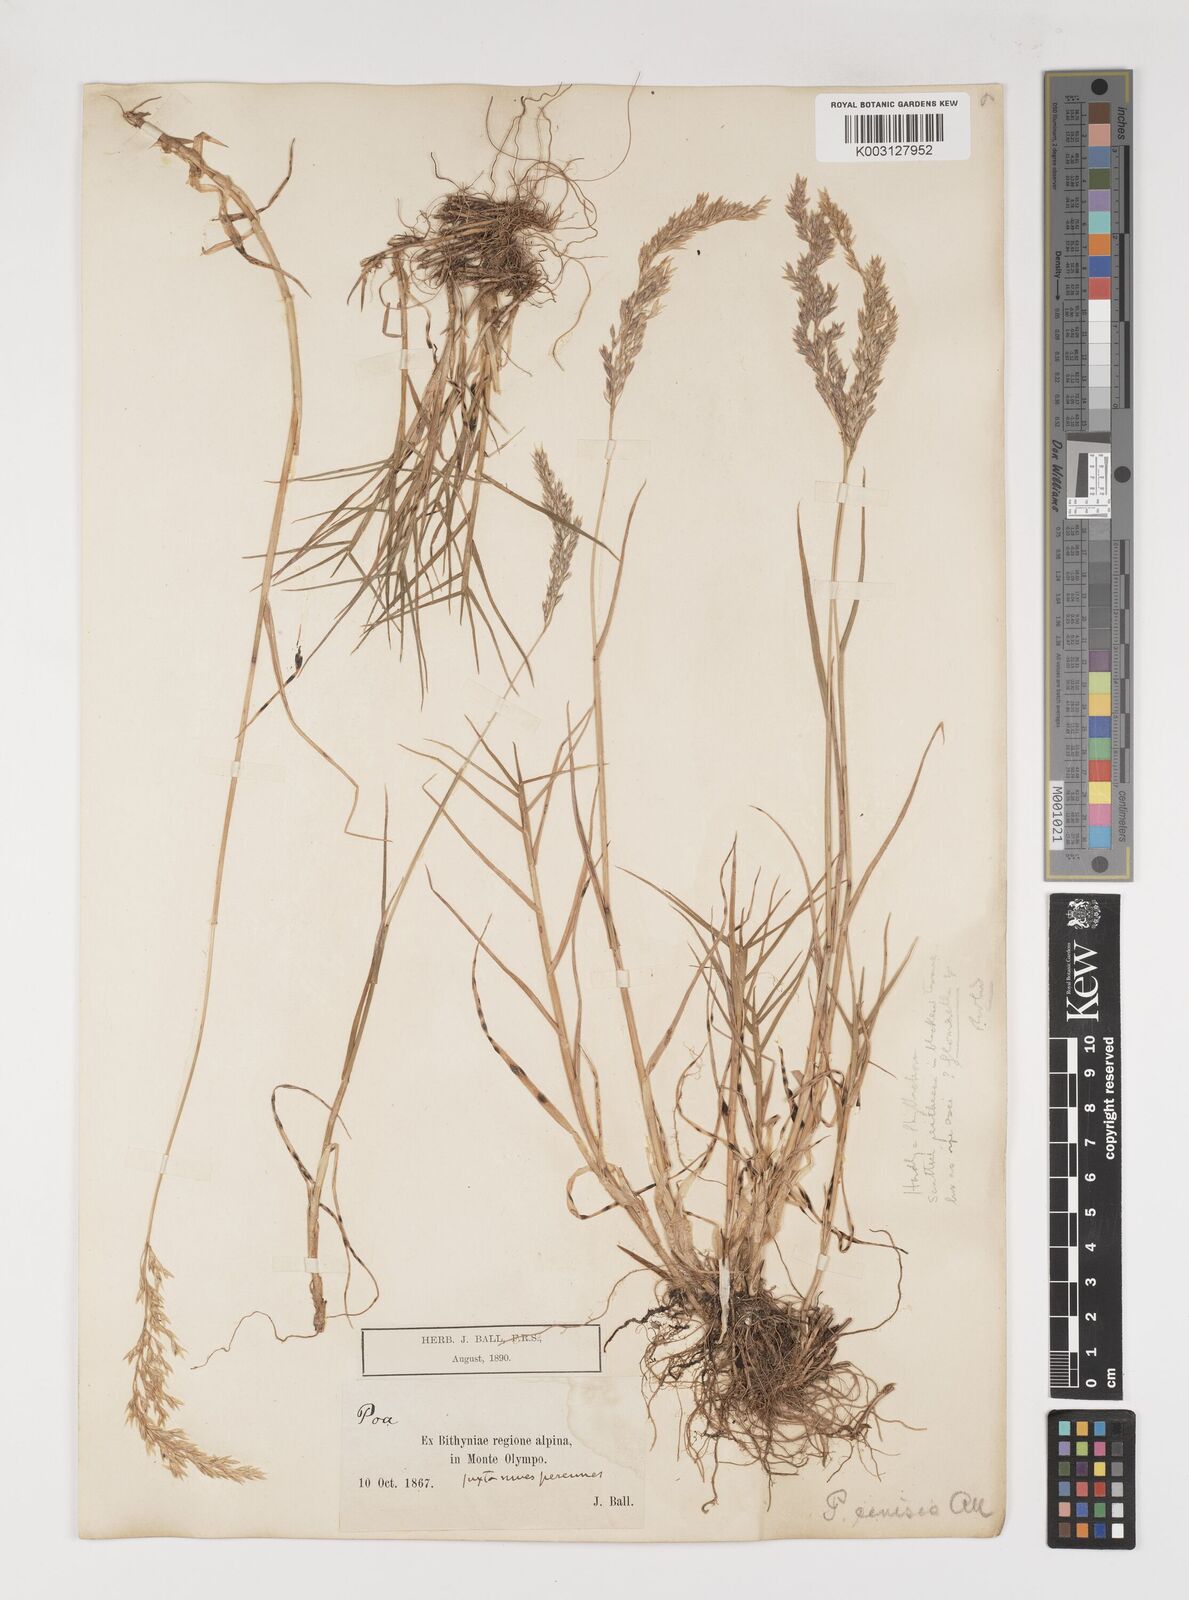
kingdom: Plantae
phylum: Tracheophyta
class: Liliopsida
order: Poales
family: Poaceae
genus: Poa
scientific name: Poa cenisia
